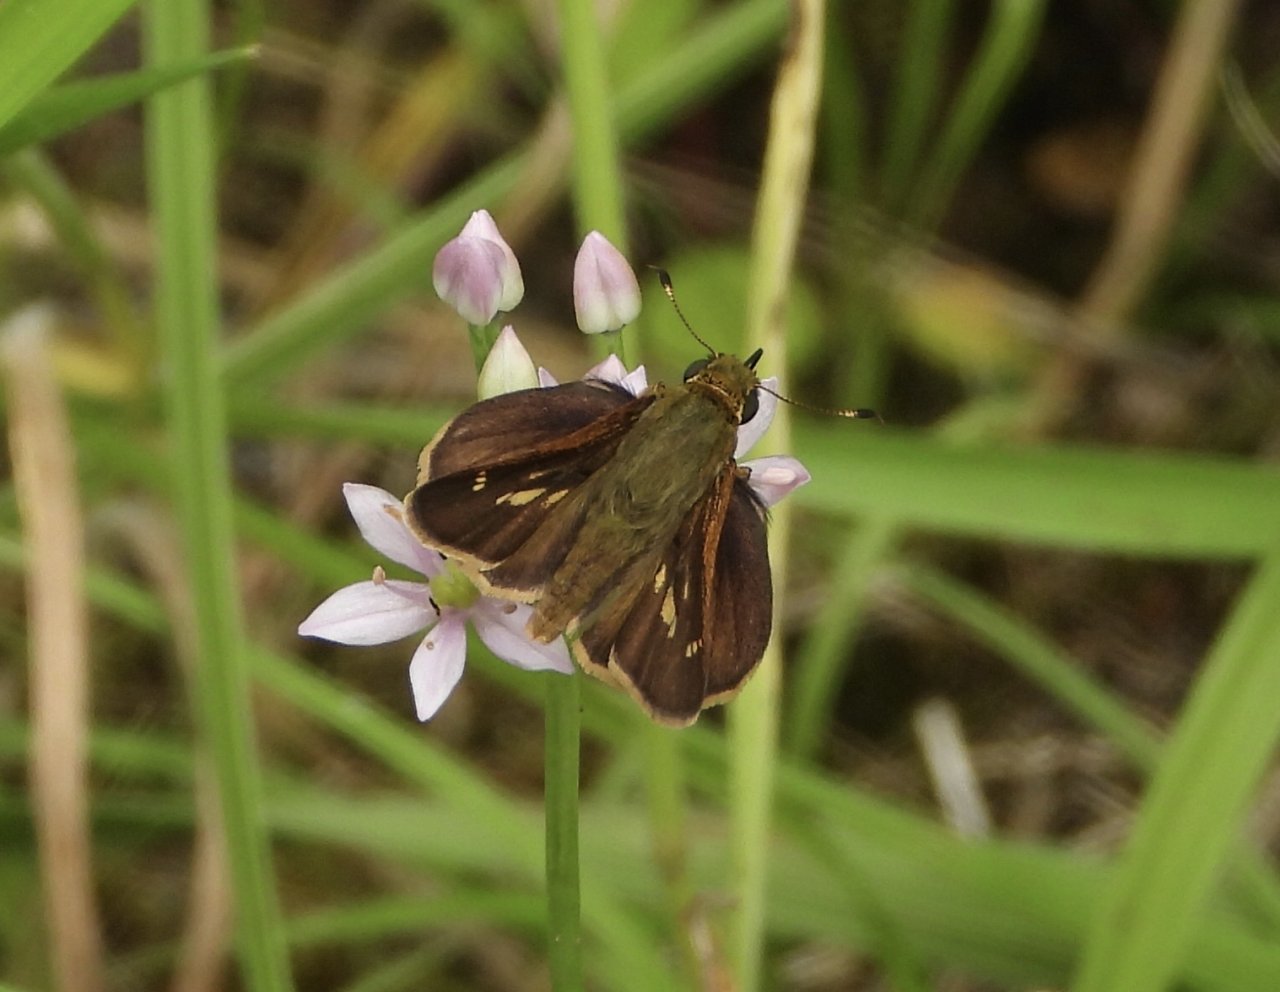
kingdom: Animalia
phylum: Arthropoda
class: Insecta
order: Lepidoptera
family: Hesperiidae
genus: Vernia
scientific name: Vernia verna
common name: Little Glassywing
